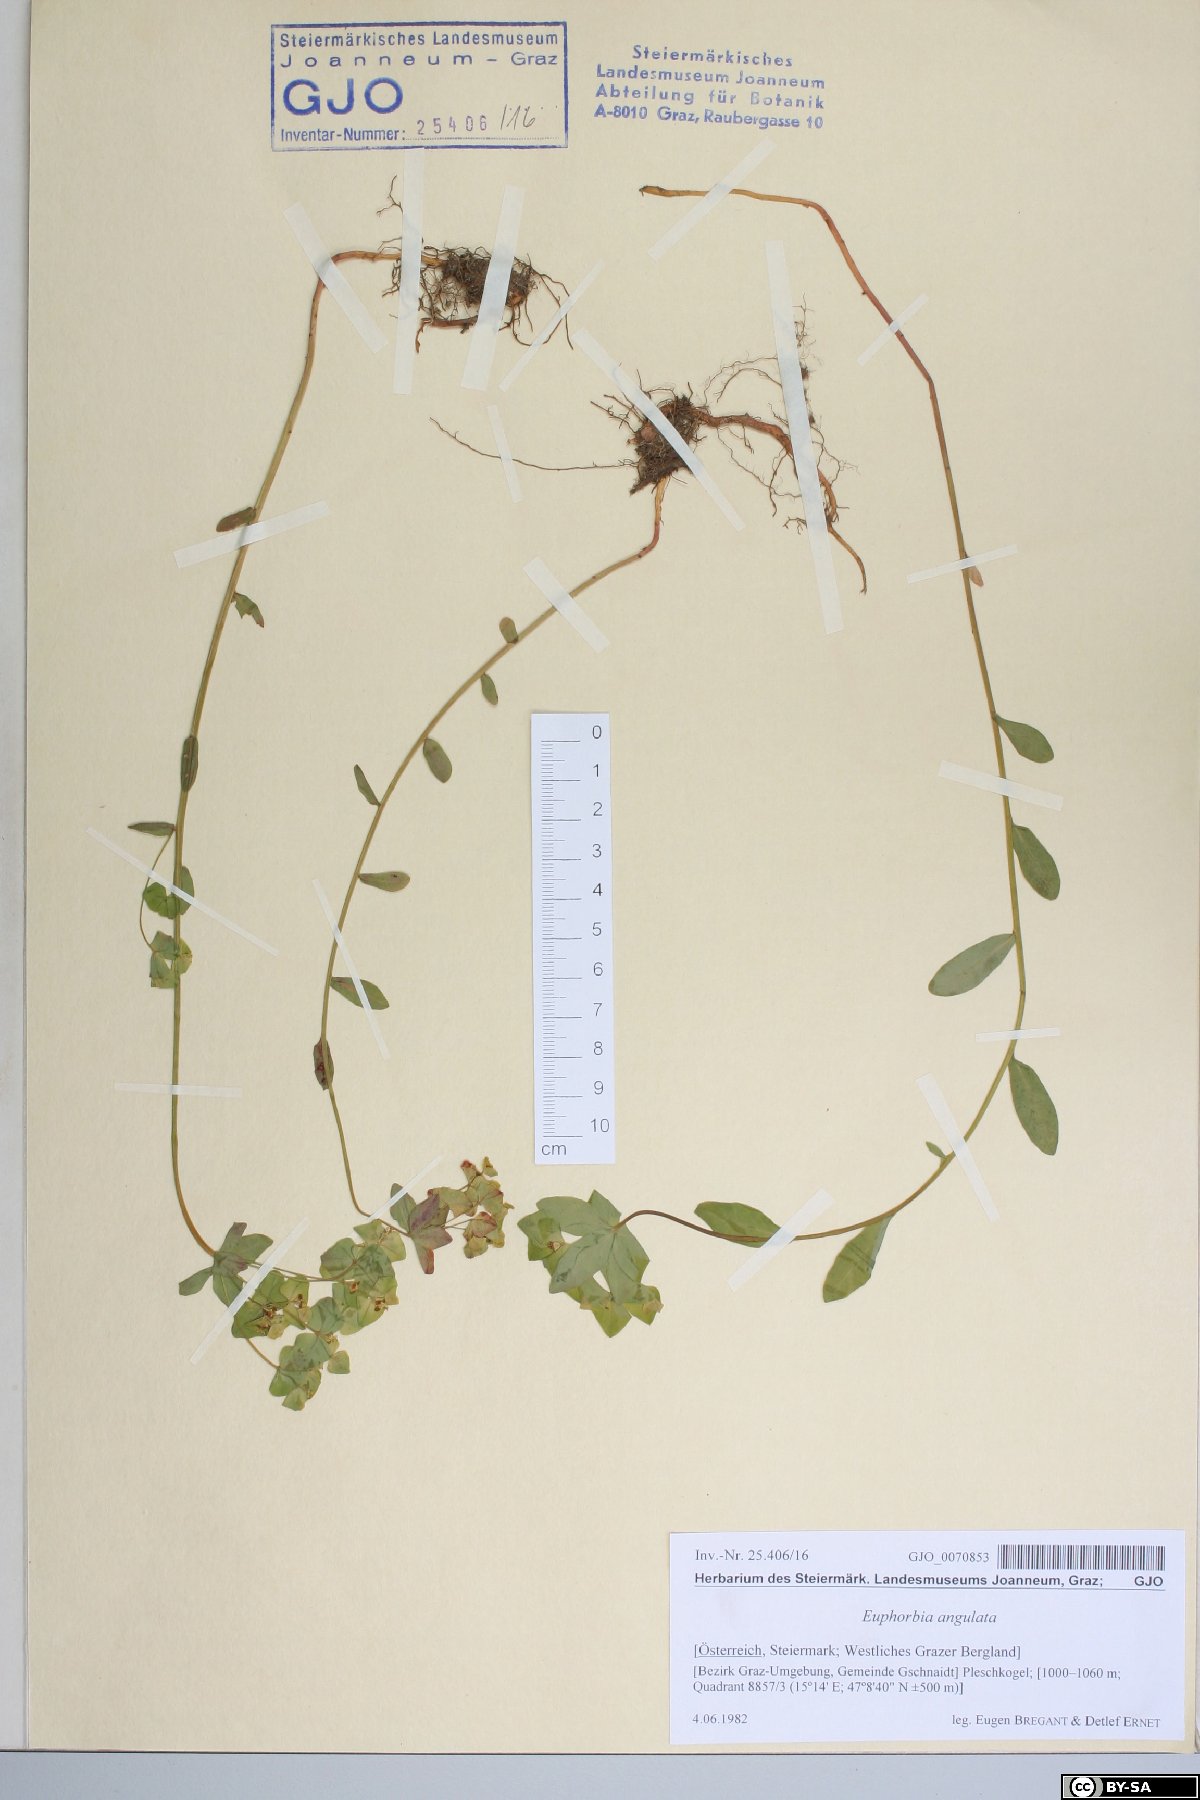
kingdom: Plantae
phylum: Tracheophyta
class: Magnoliopsida
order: Malpighiales
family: Euphorbiaceae
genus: Euphorbia
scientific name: Euphorbia angulata
